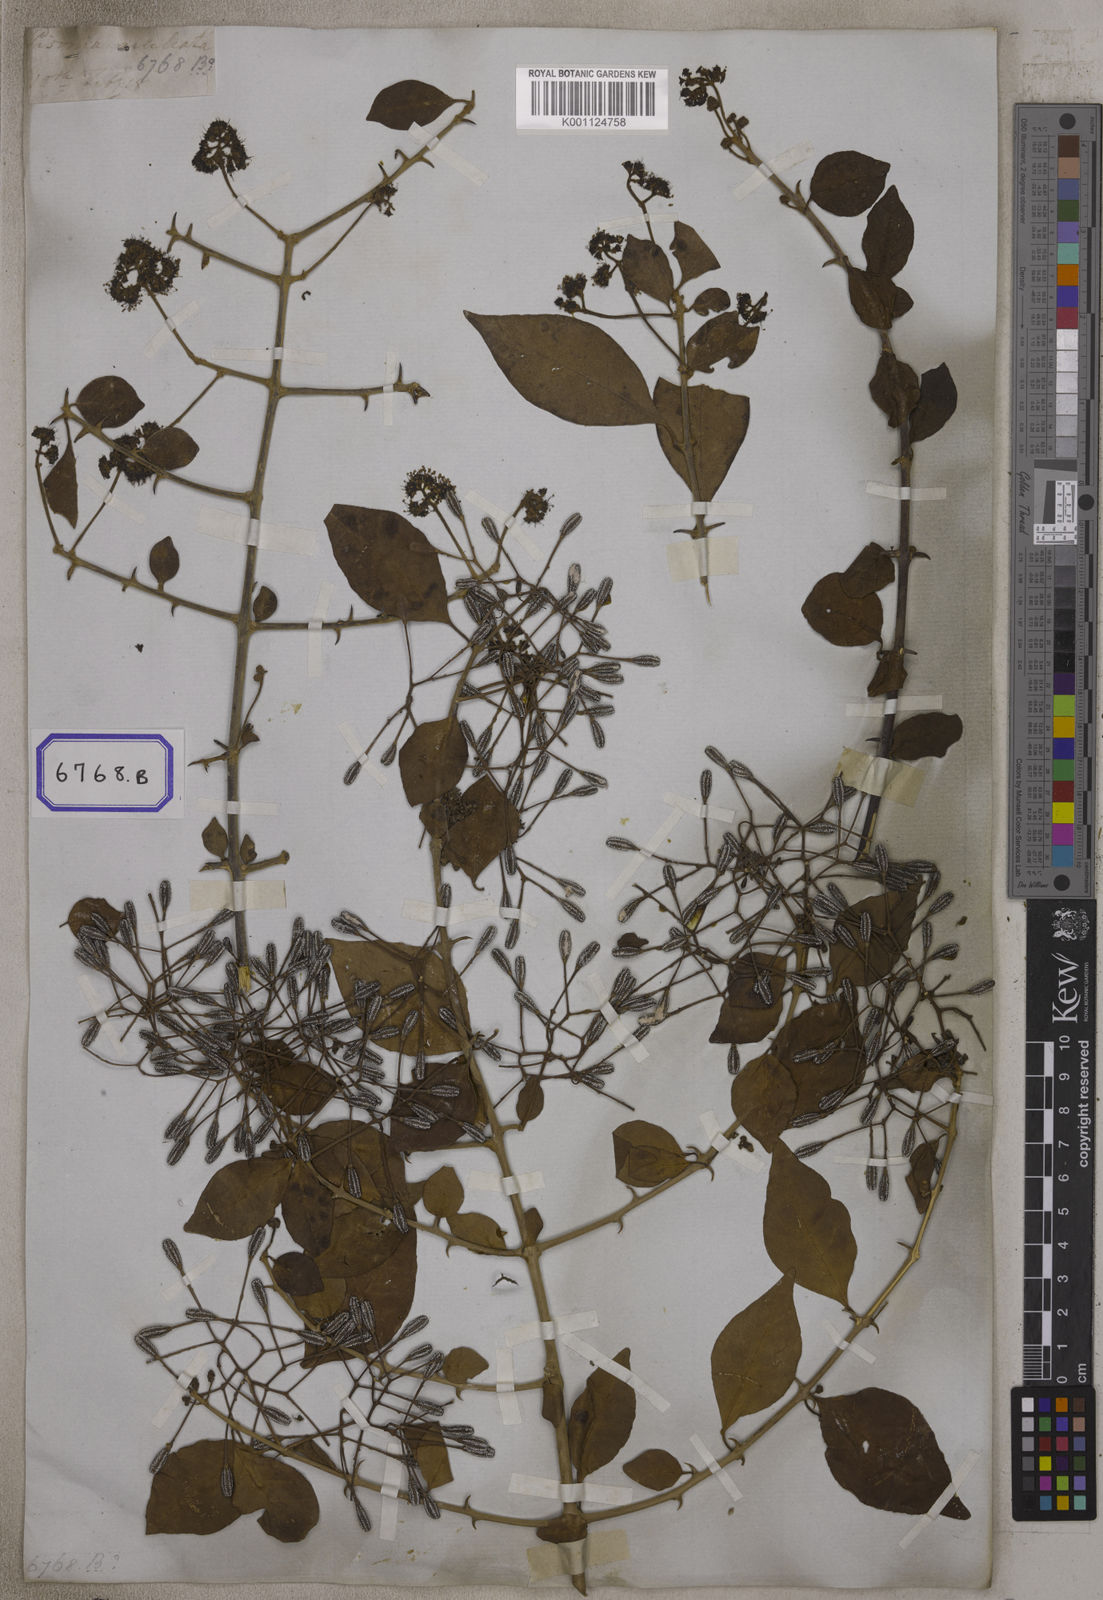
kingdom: Plantae
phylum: Tracheophyta
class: Magnoliopsida
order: Caryophyllales
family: Nyctaginaceae
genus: Pisonia
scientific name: Pisonia aculeata
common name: Cockspur vine
